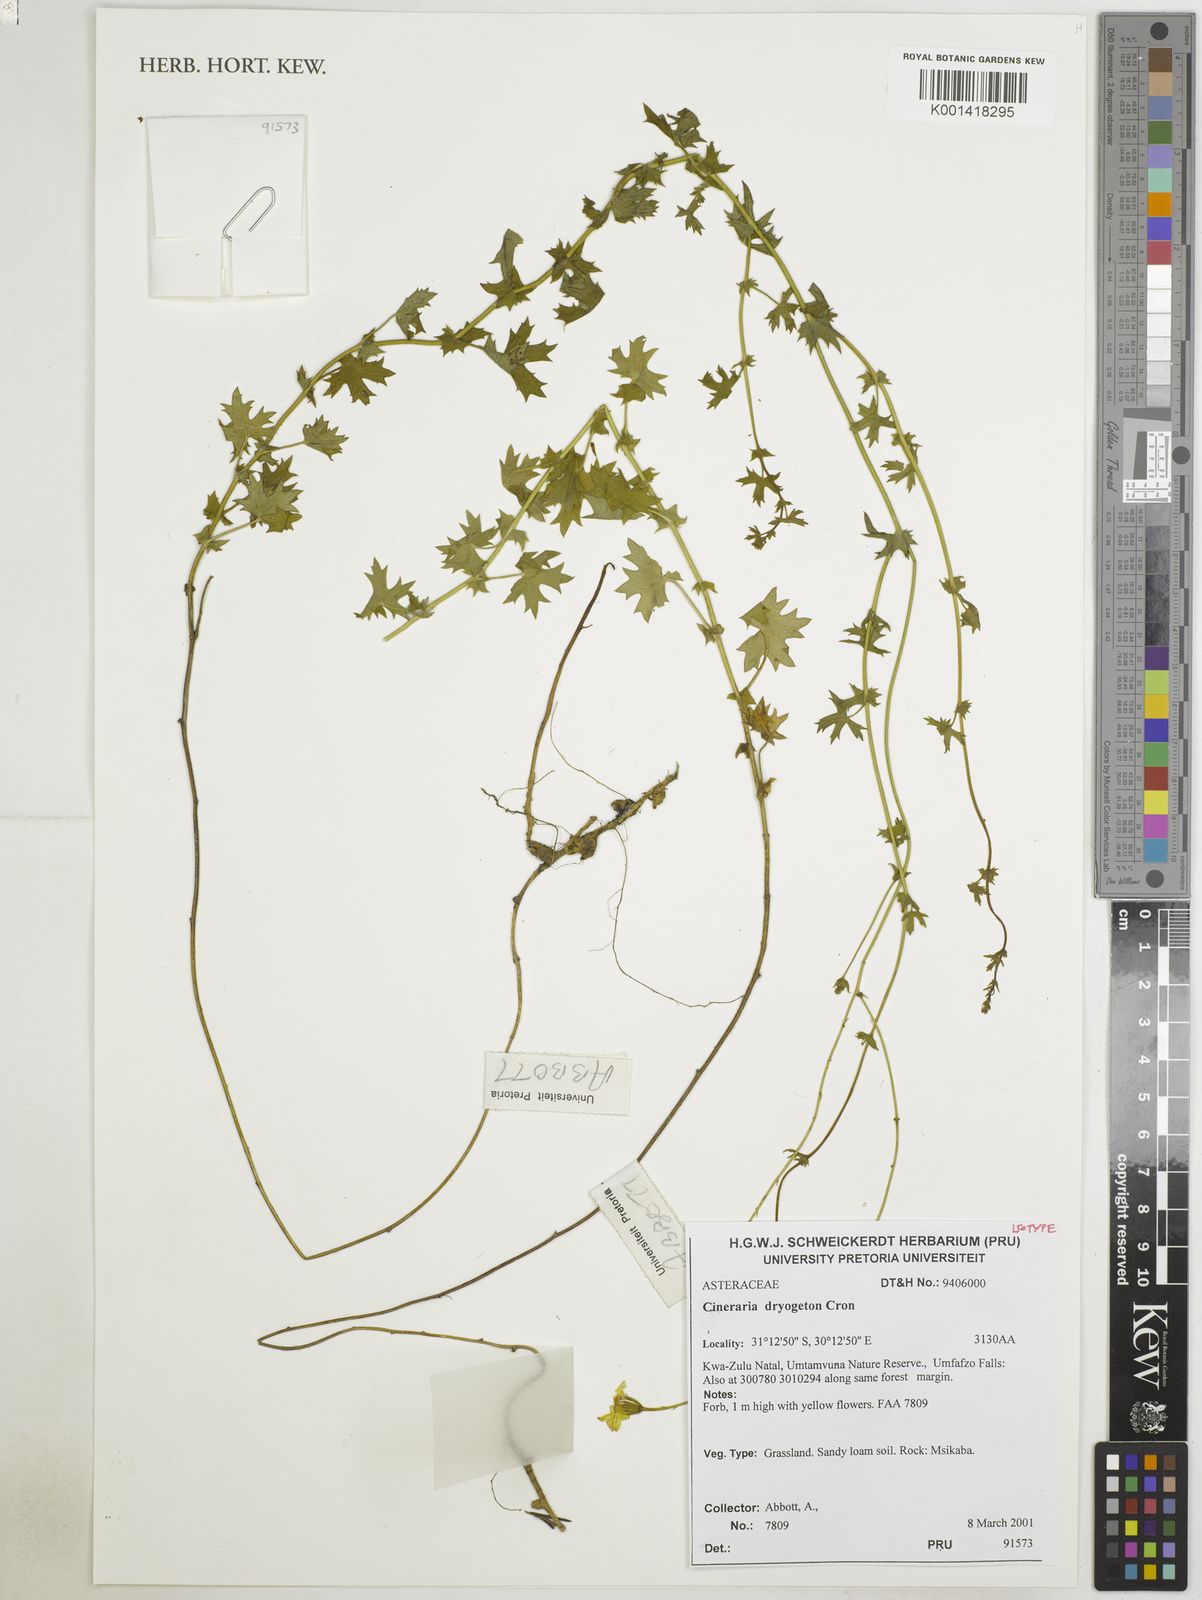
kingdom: Plantae
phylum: Tracheophyta
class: Magnoliopsida
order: Asterales
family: Asteraceae
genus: Cineraria
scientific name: Cineraria dryogeton
